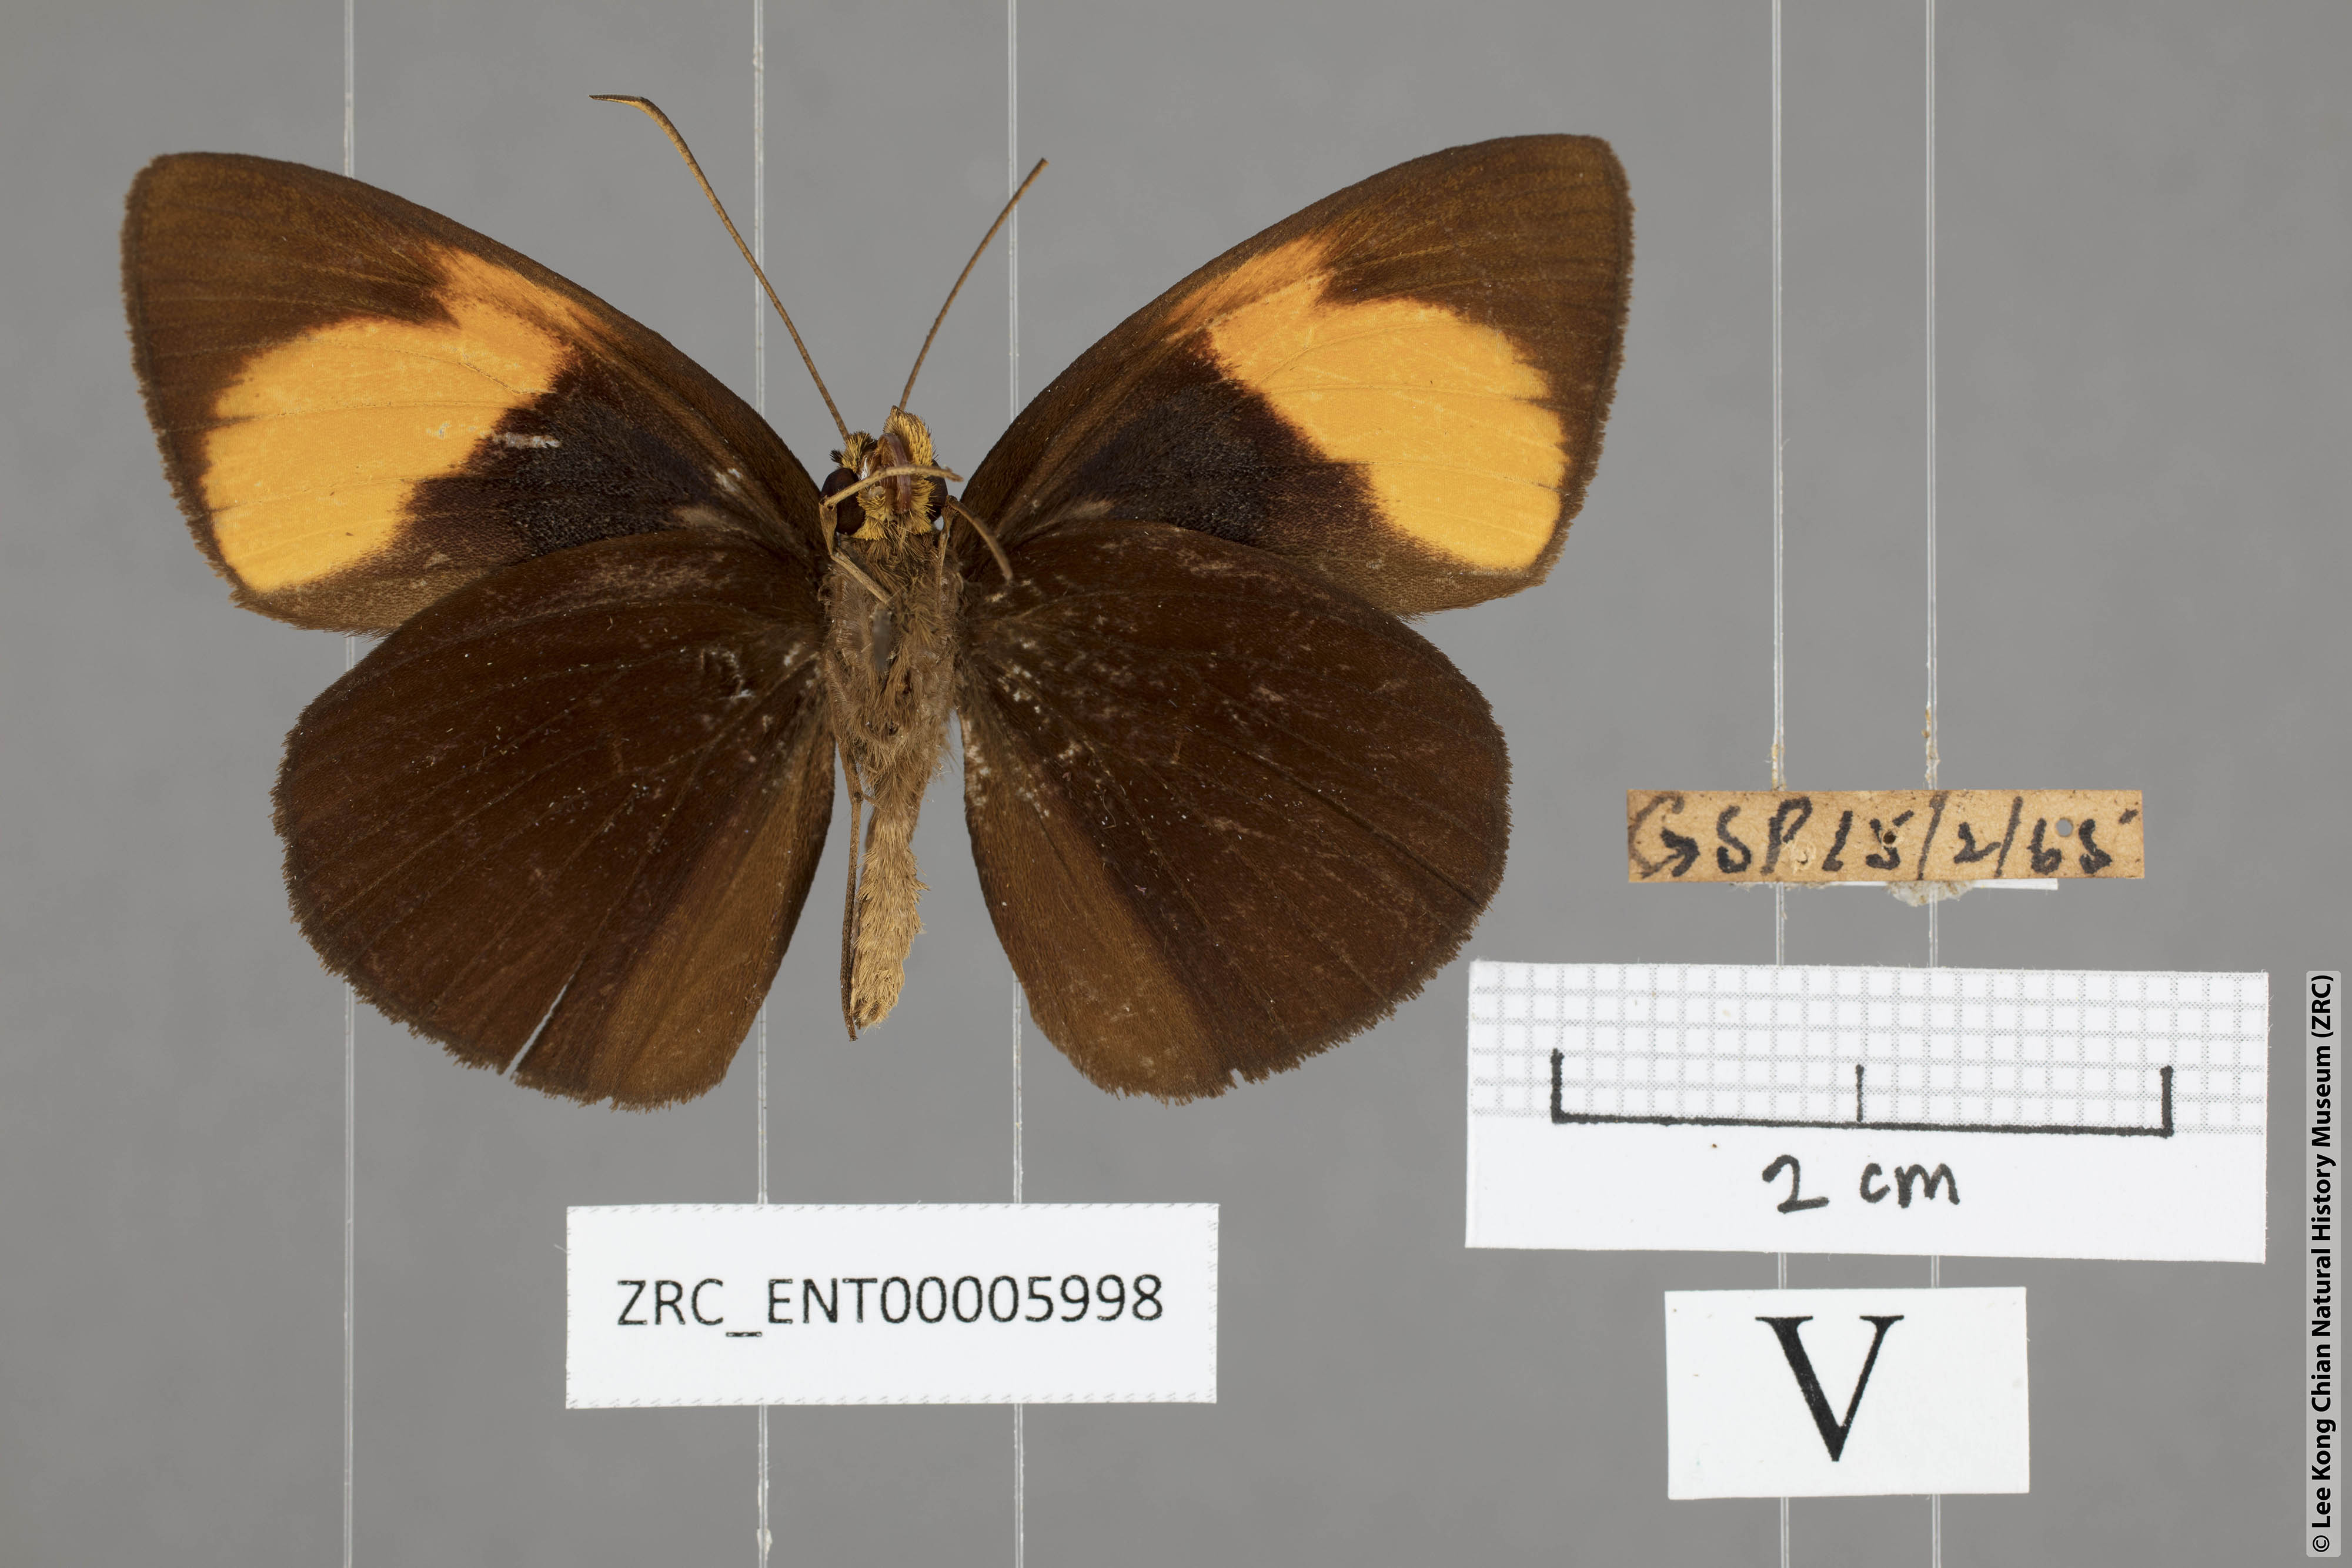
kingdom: Animalia
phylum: Arthropoda
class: Insecta
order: Lepidoptera
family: Hesperiidae
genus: Ancistroides
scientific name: Ancistroides armatus
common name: Red demon
